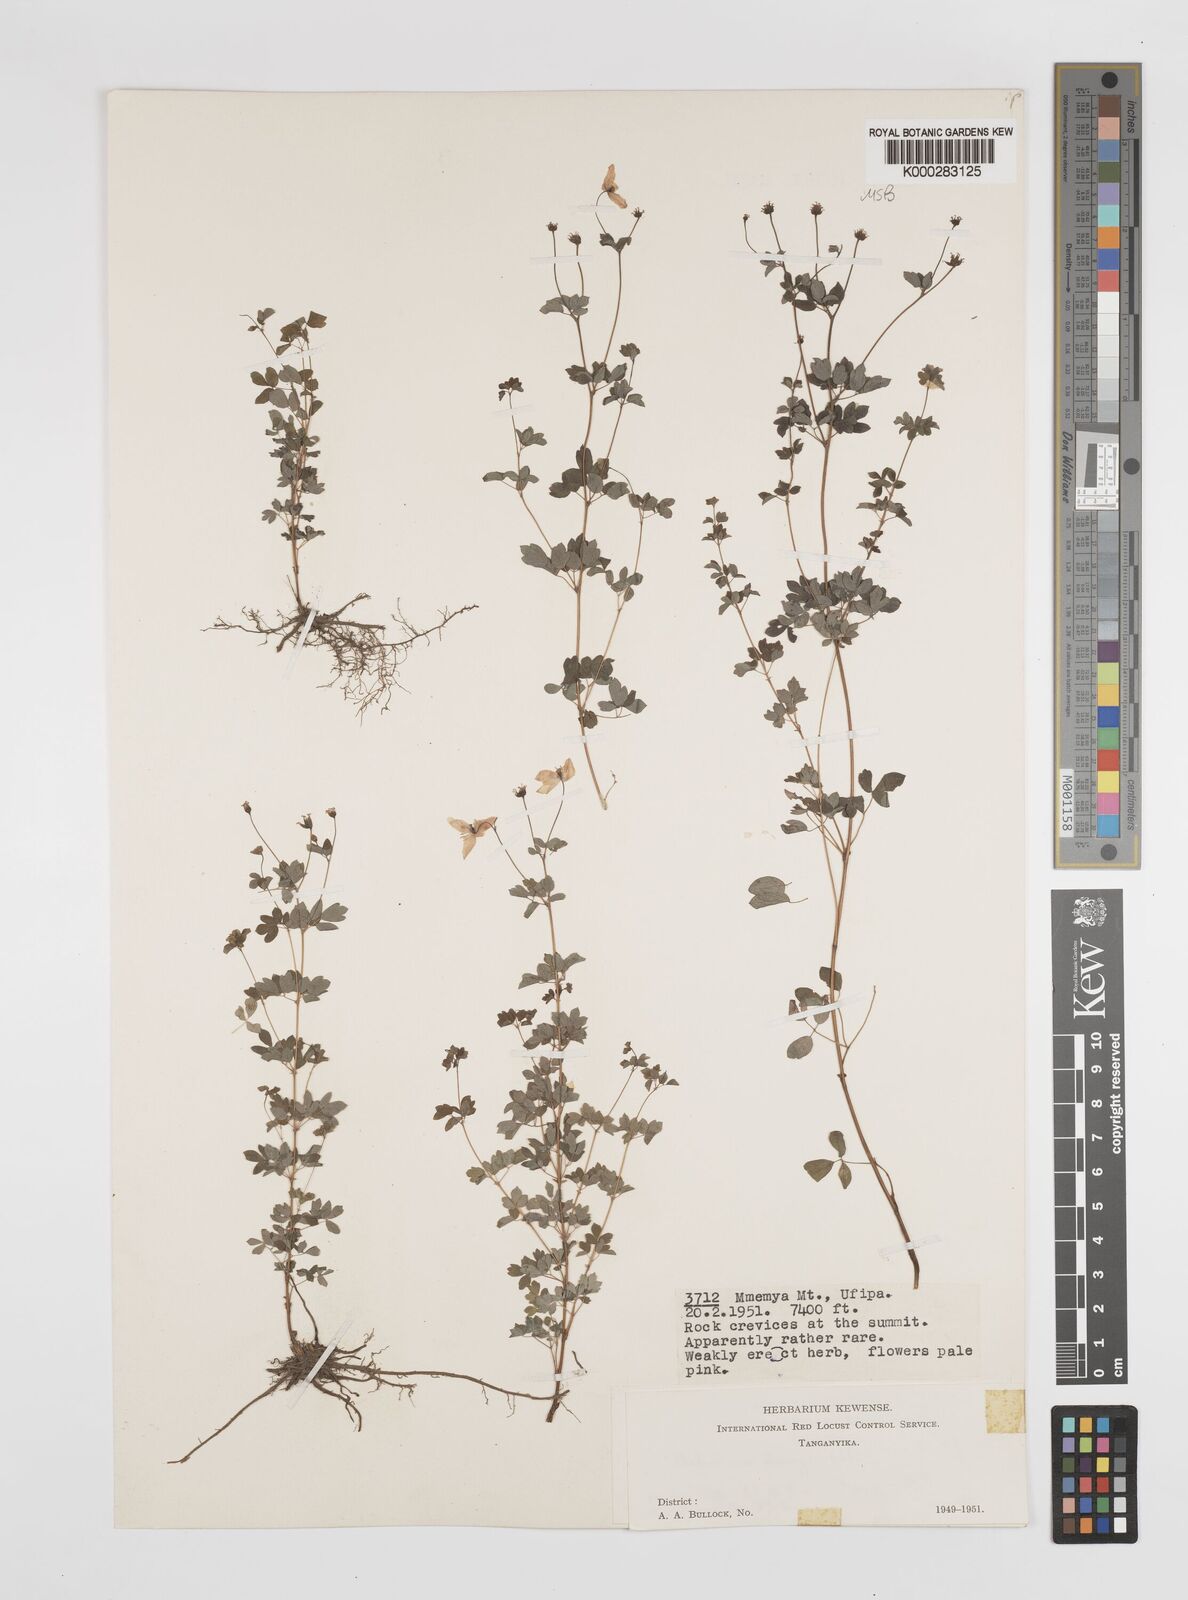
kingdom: Plantae
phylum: Tracheophyta
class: Magnoliopsida
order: Ranunculales
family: Ranunculaceae
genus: Thalictrum
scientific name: Thalictrum zernyi
